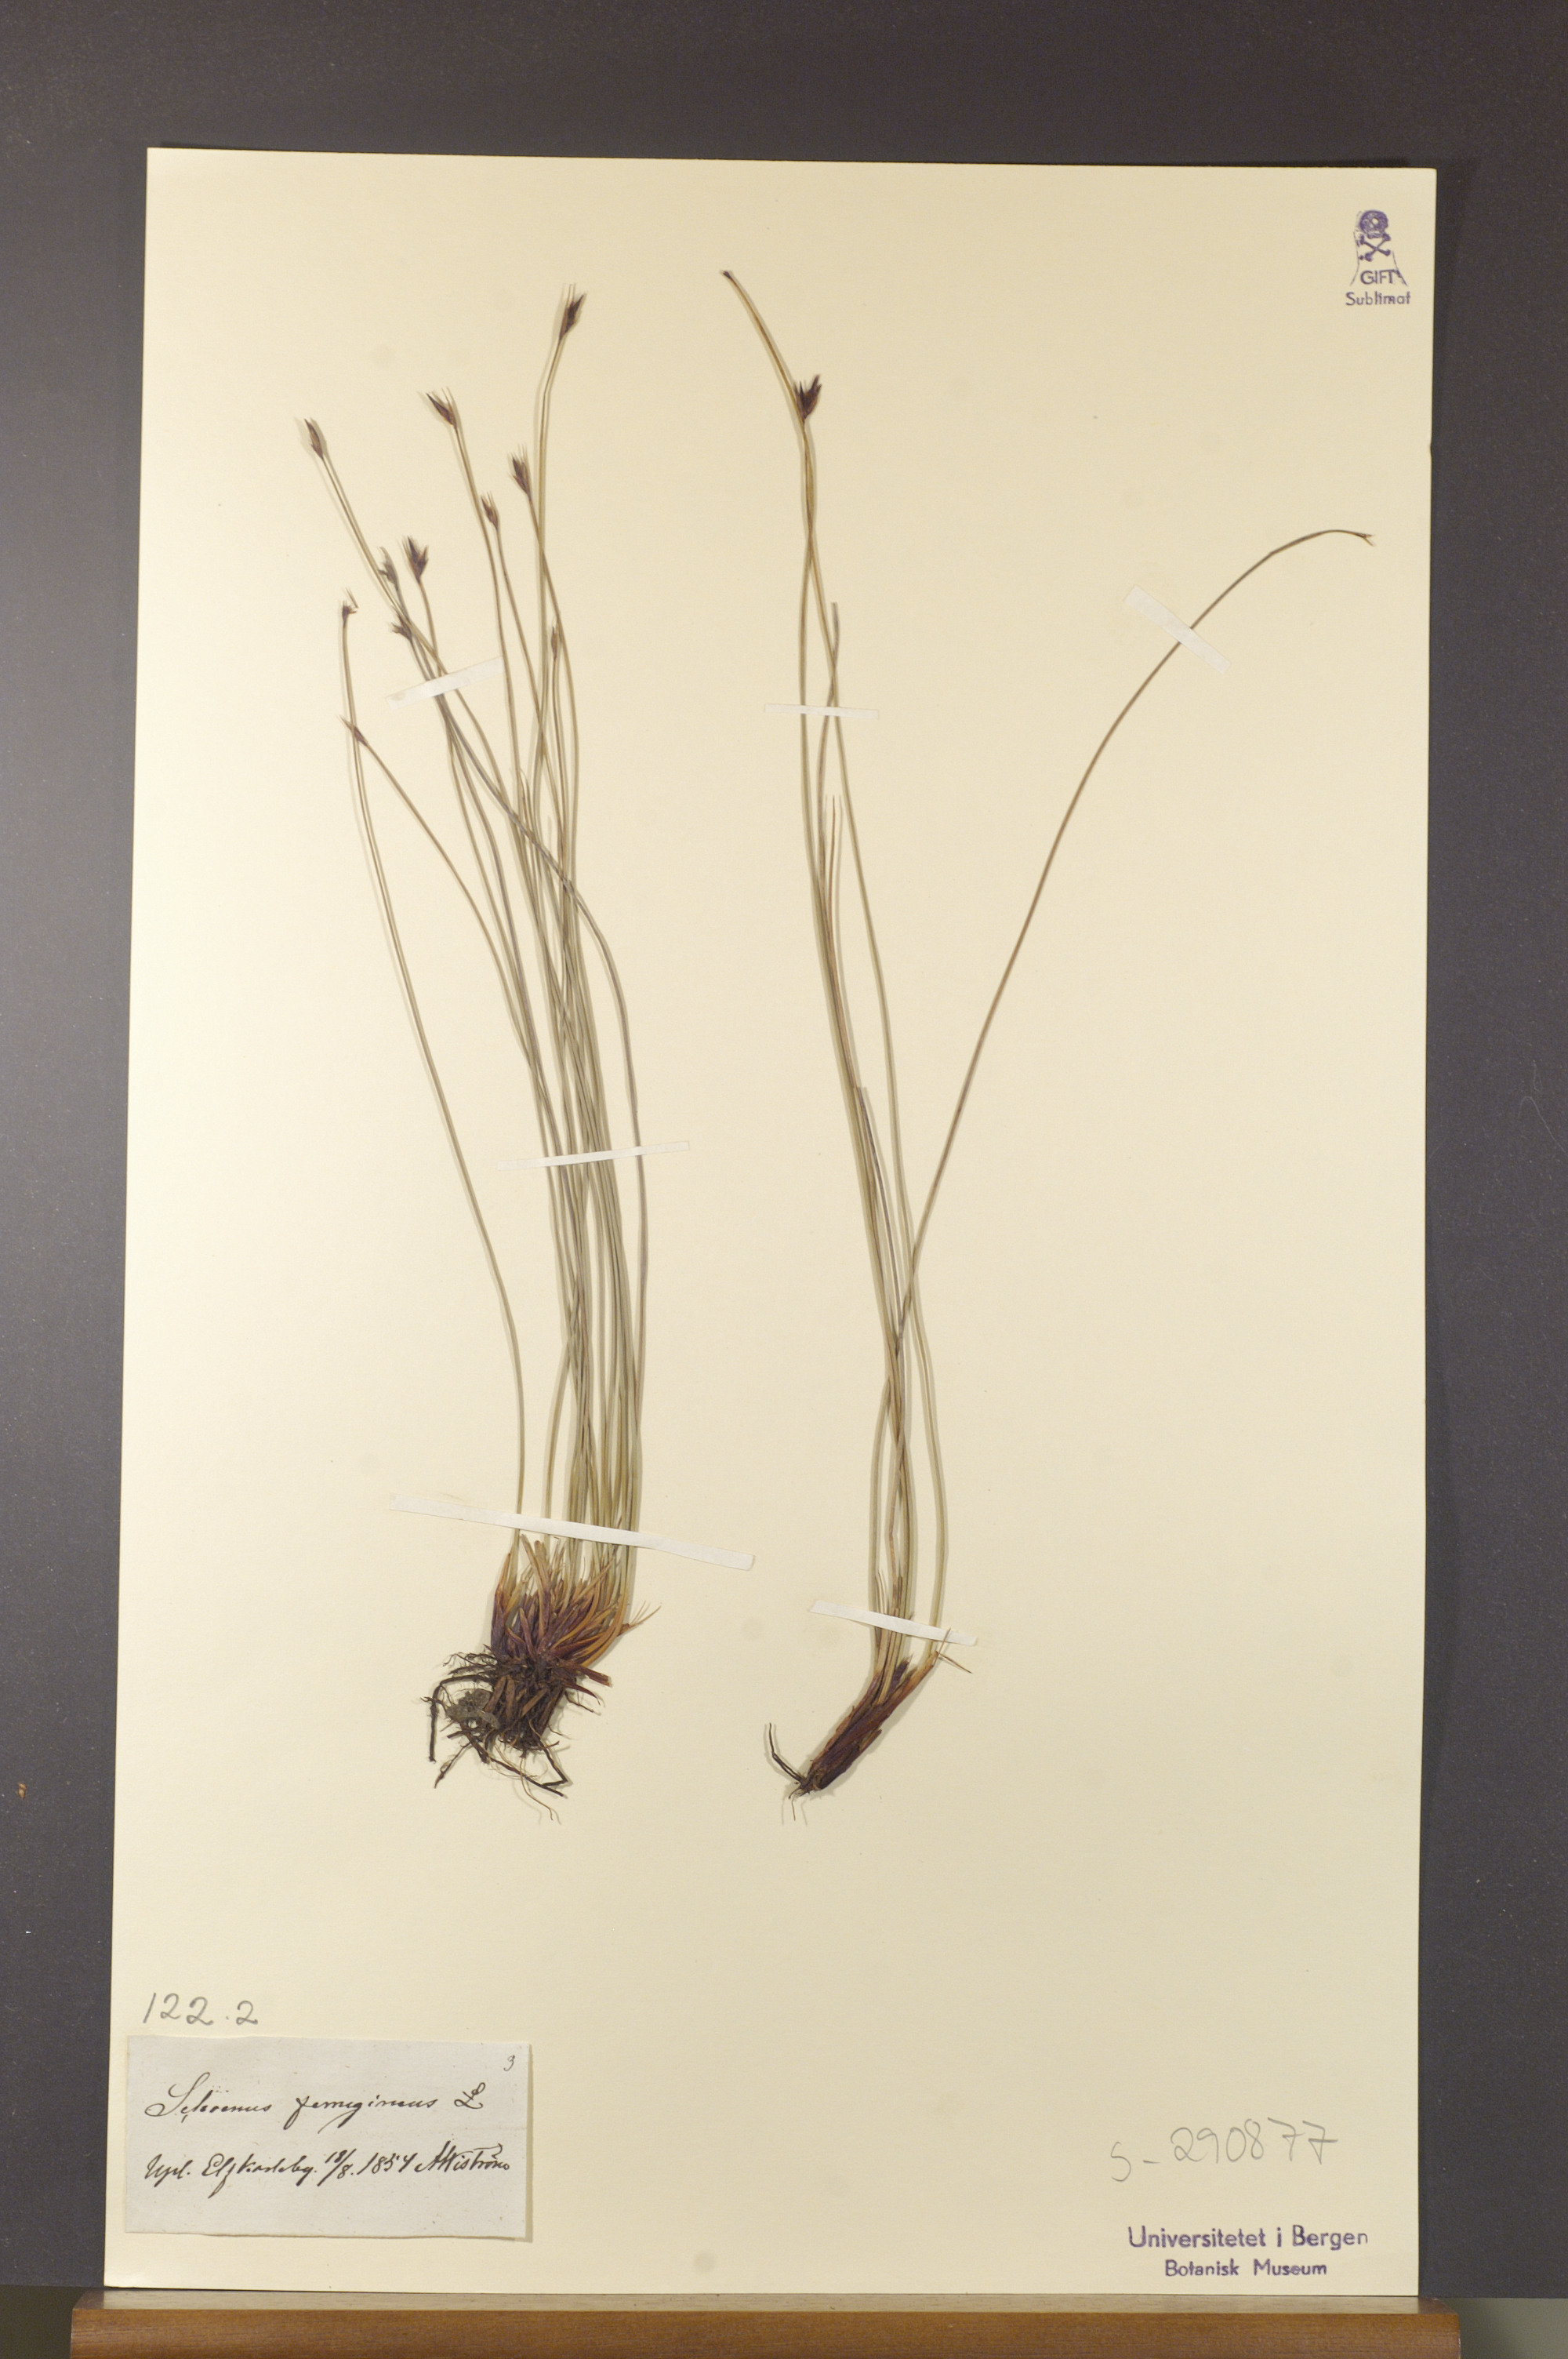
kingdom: Plantae
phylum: Tracheophyta
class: Liliopsida
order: Poales
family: Cyperaceae
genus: Schoenus
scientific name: Schoenus ferrugineus
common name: Brown bog-rush
